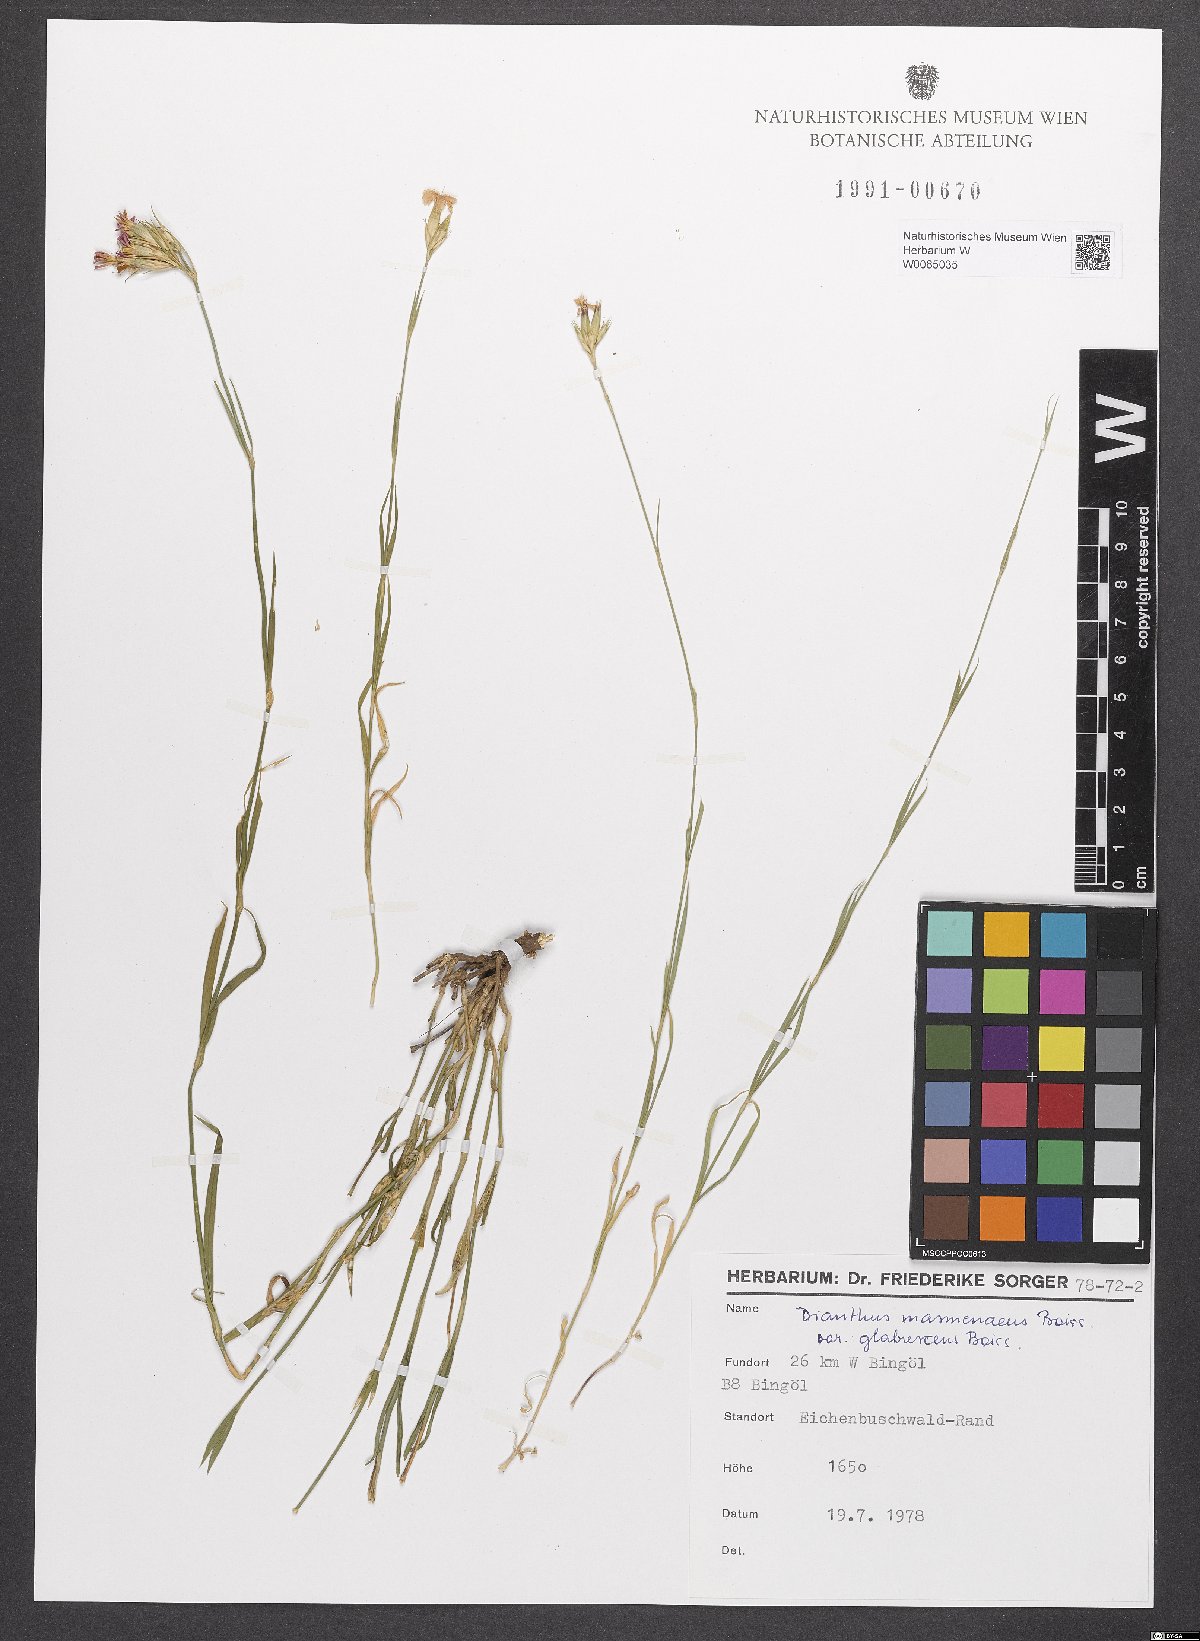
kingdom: Plantae
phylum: Tracheophyta
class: Magnoliopsida
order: Caryophyllales
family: Caryophyllaceae
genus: Dianthus
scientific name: Dianthus masmenaeus
